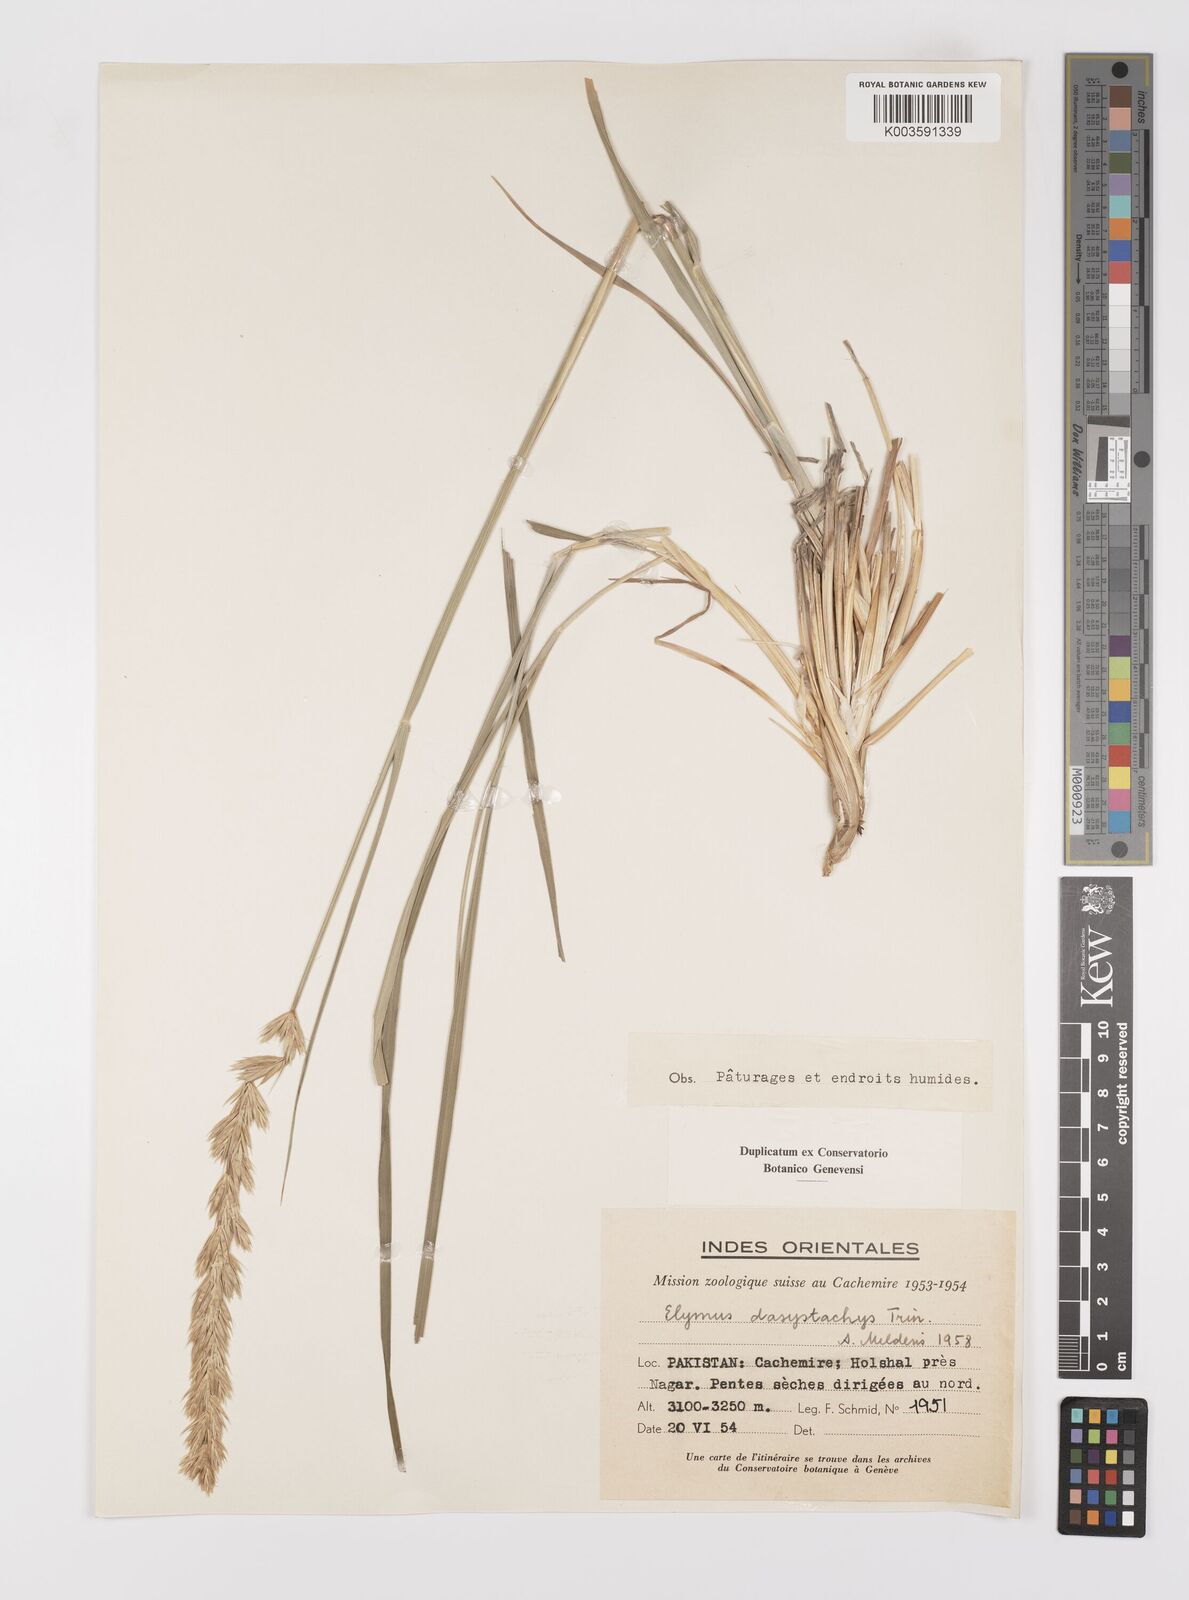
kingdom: Plantae
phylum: Tracheophyta
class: Liliopsida
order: Poales
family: Poaceae
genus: Leymus
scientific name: Leymus secalinus
